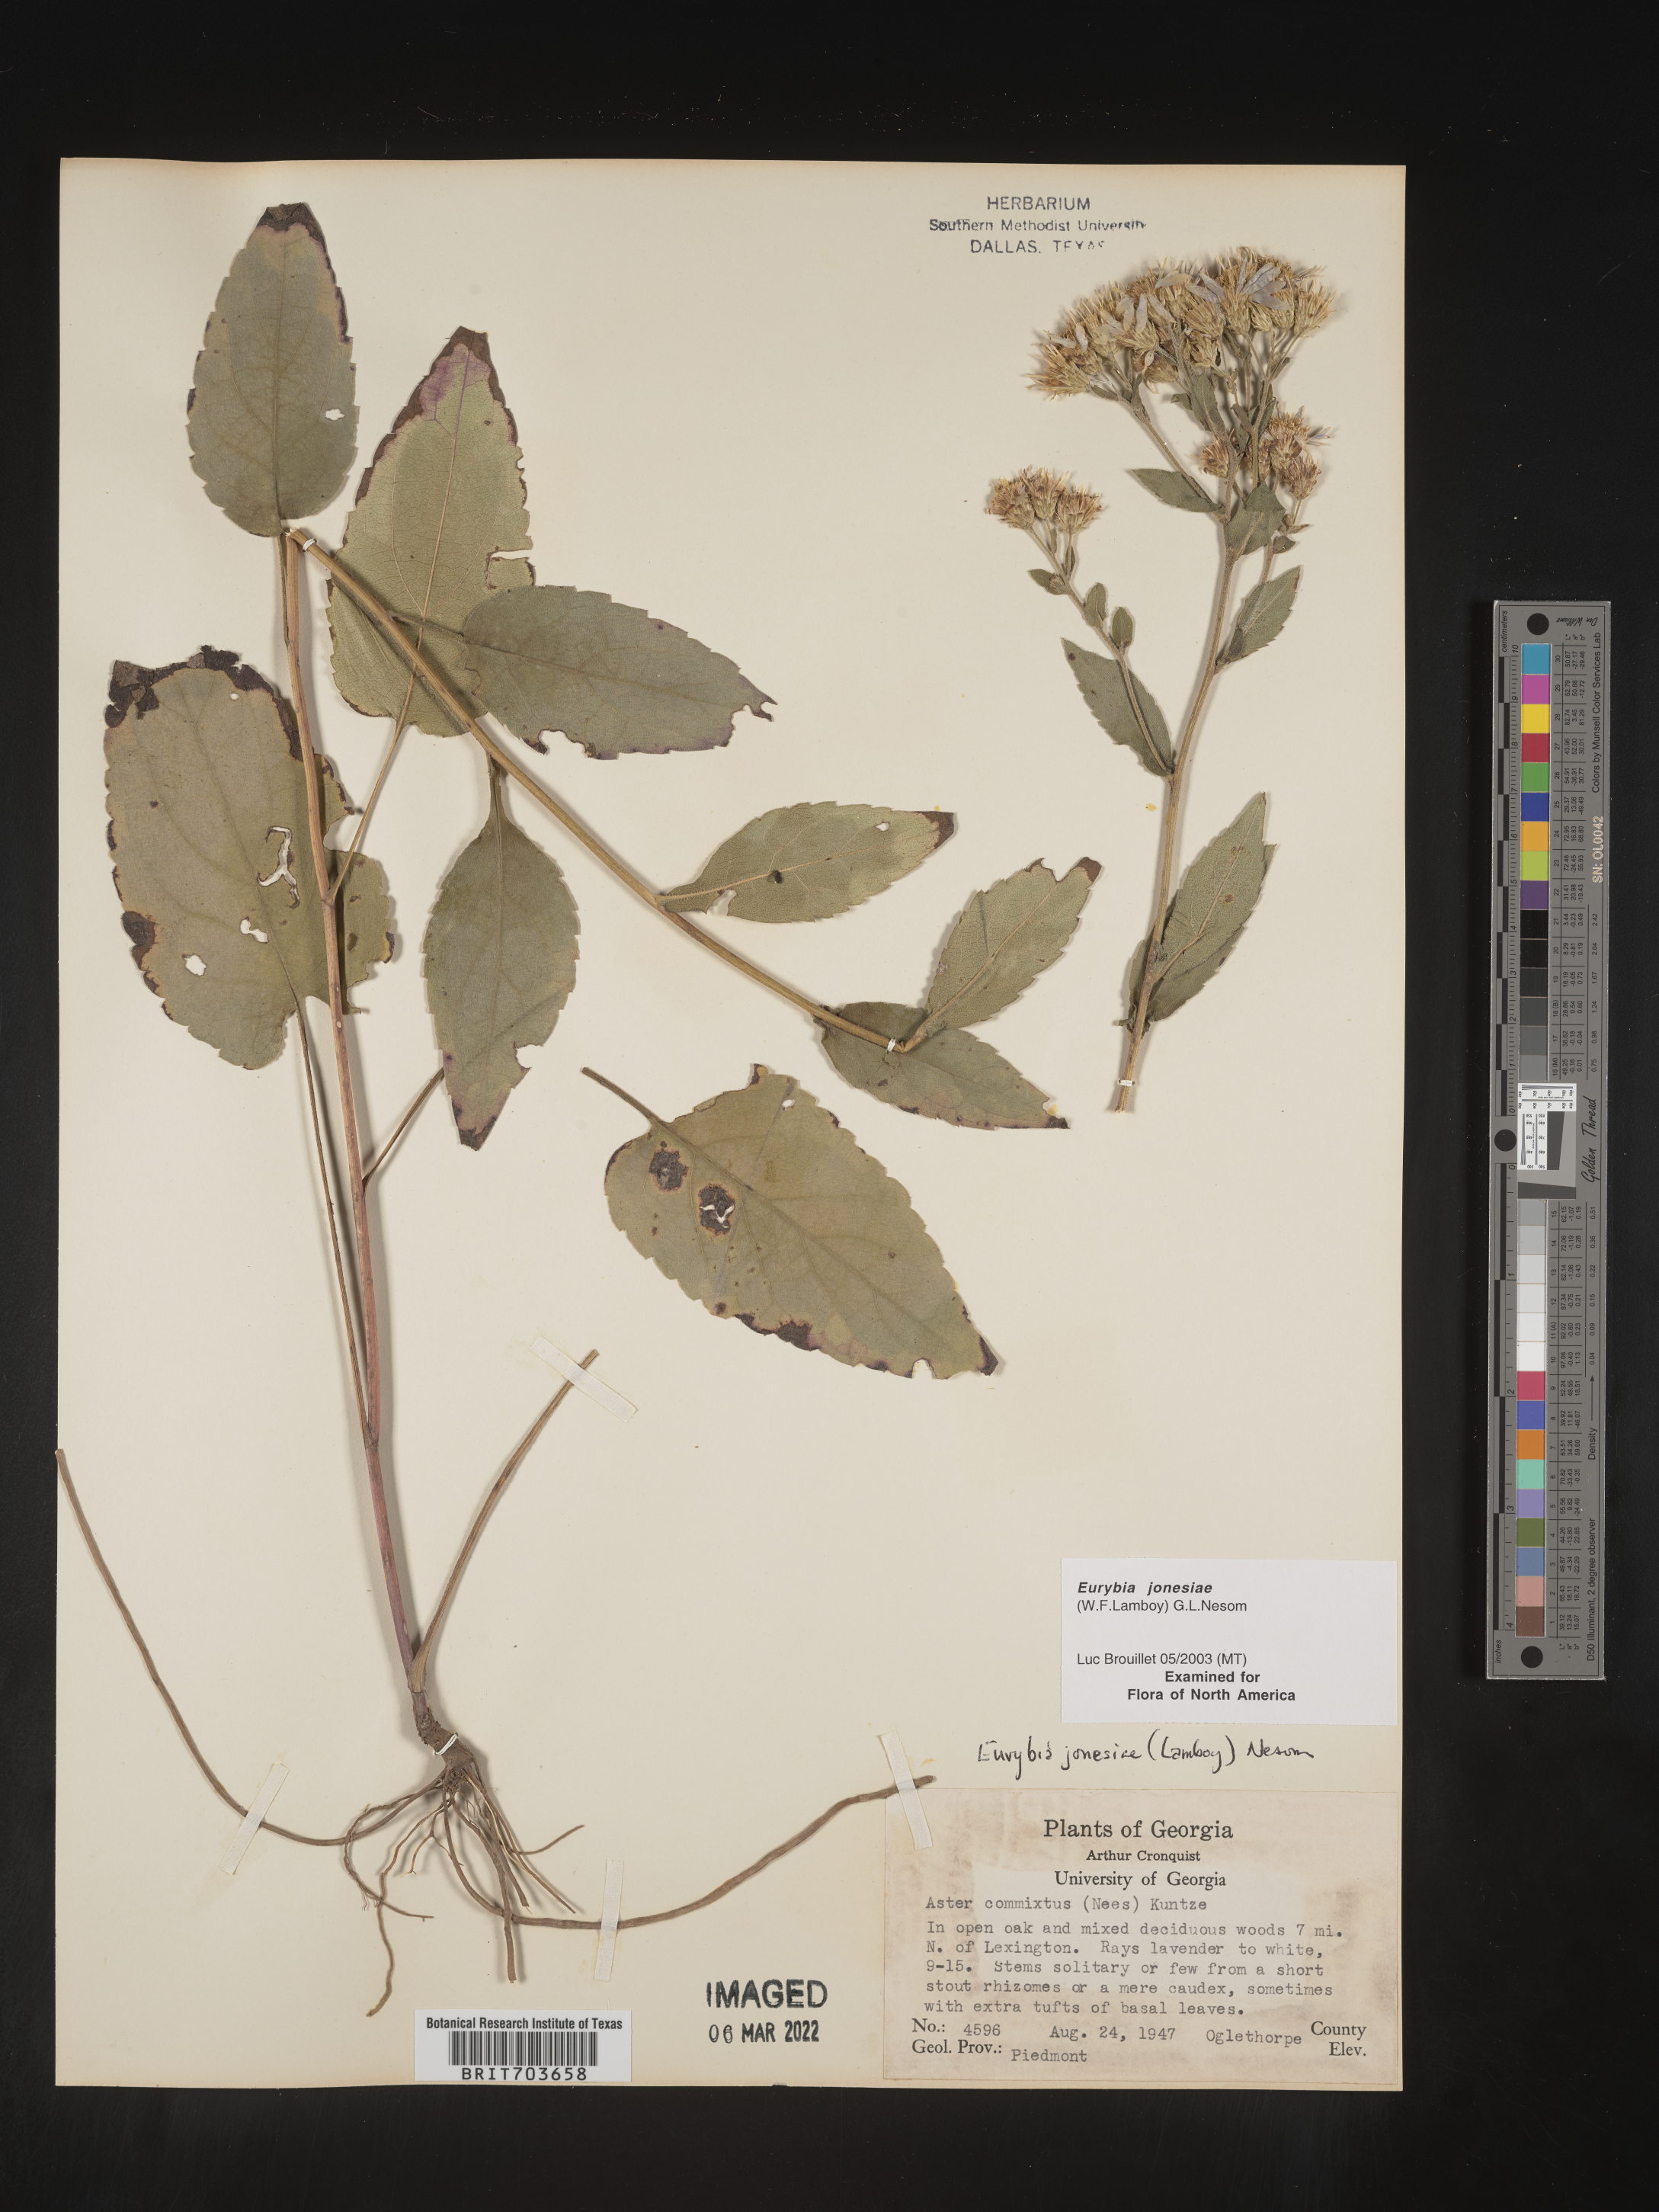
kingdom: Plantae
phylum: Tracheophyta
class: Magnoliopsida
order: Asterales
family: Asteraceae
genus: Eurybia
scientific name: Eurybia jonesiae
